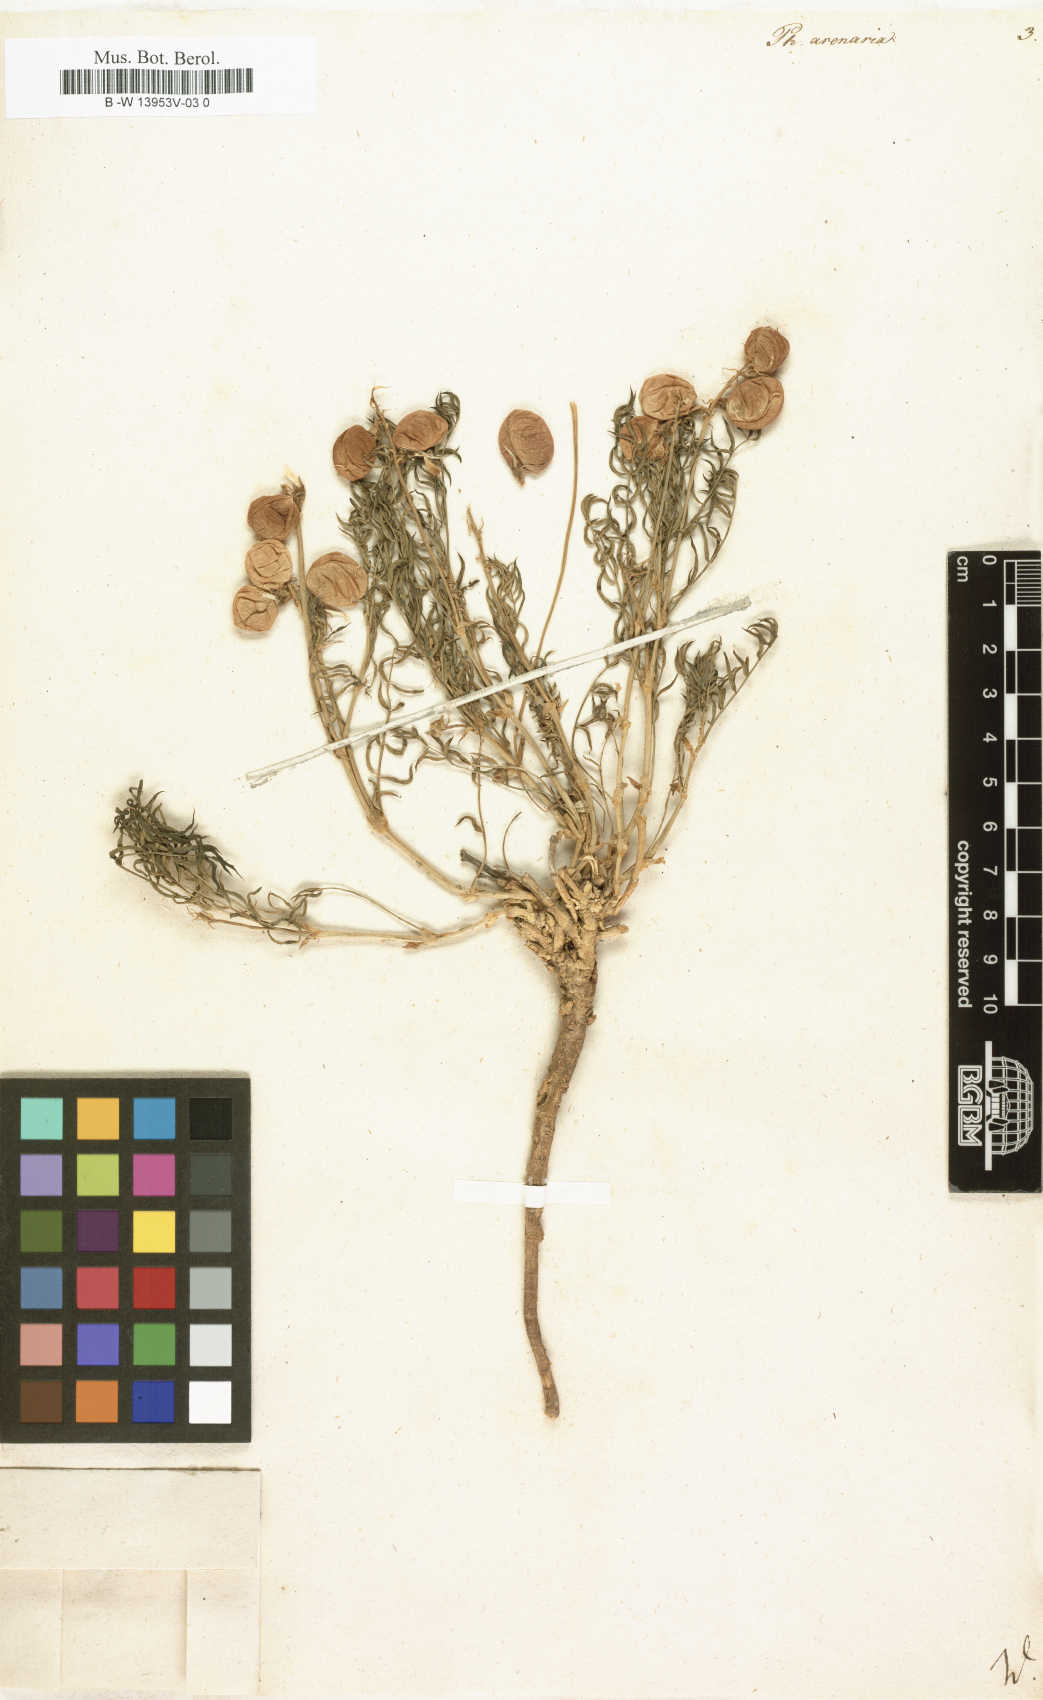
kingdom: Plantae
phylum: Tracheophyta
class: Magnoliopsida
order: Fabales
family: Fabaceae
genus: Astragalus
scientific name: Astragalus chorinensis
